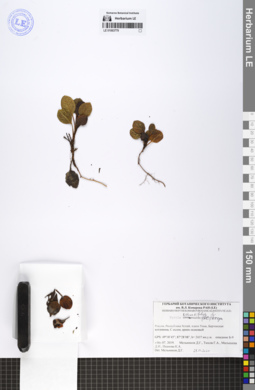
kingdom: Plantae
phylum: Tracheophyta
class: Magnoliopsida
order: Ericales
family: Ericaceae
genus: Pyrola
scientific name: Pyrola rotundifolia
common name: Round-leaved wintergreen
